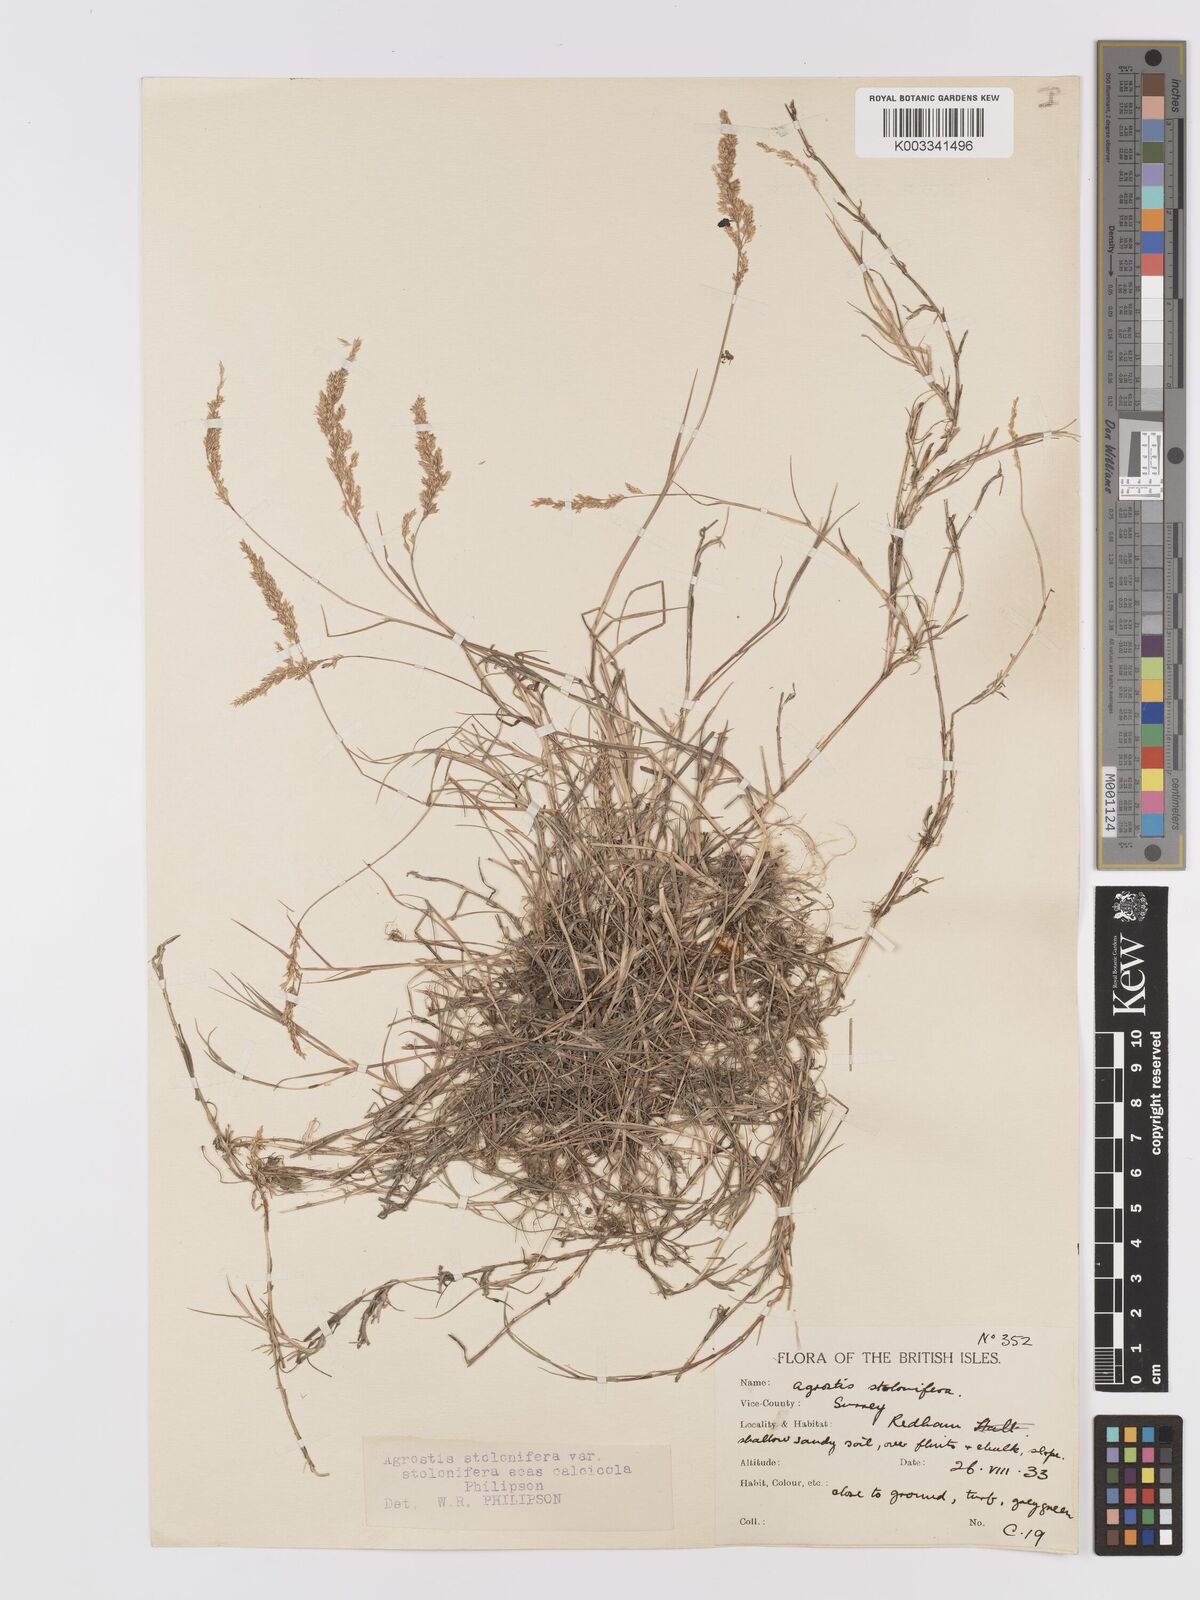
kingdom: Plantae
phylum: Tracheophyta
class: Liliopsida
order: Poales
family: Poaceae
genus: Agrostis
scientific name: Agrostis stolonifera
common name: Creeping bentgrass
